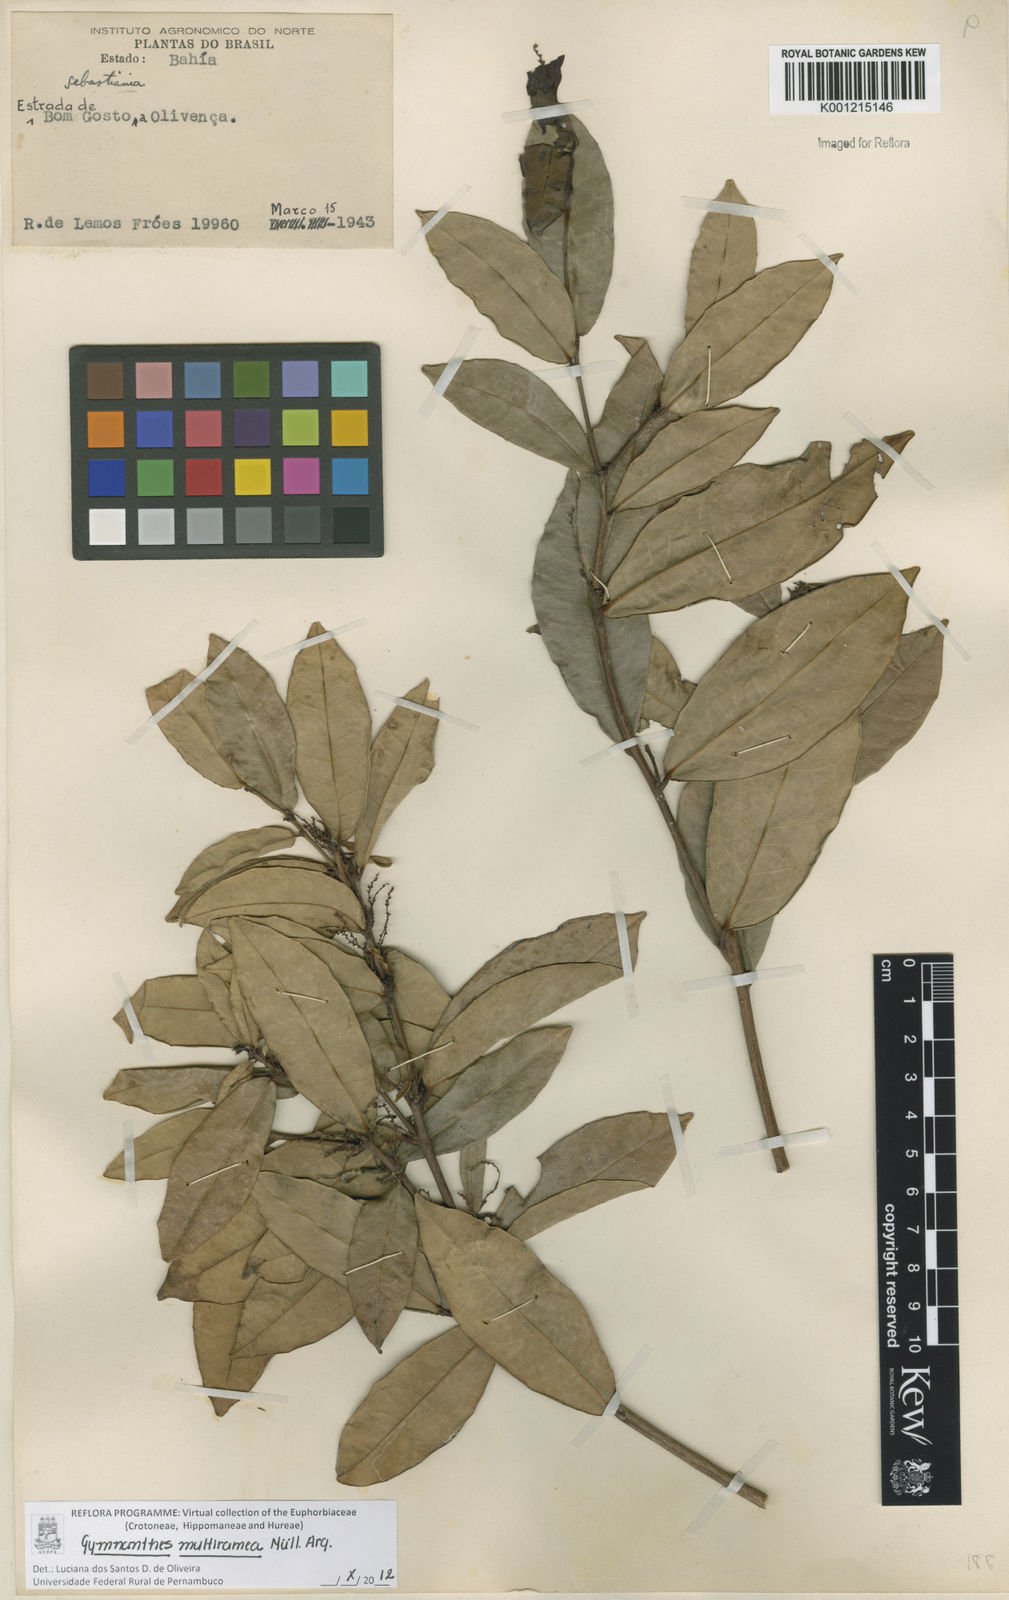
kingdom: Plantae
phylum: Tracheophyta
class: Magnoliopsida
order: Malpighiales
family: Euphorbiaceae
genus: Gymnanthes
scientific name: Gymnanthes
